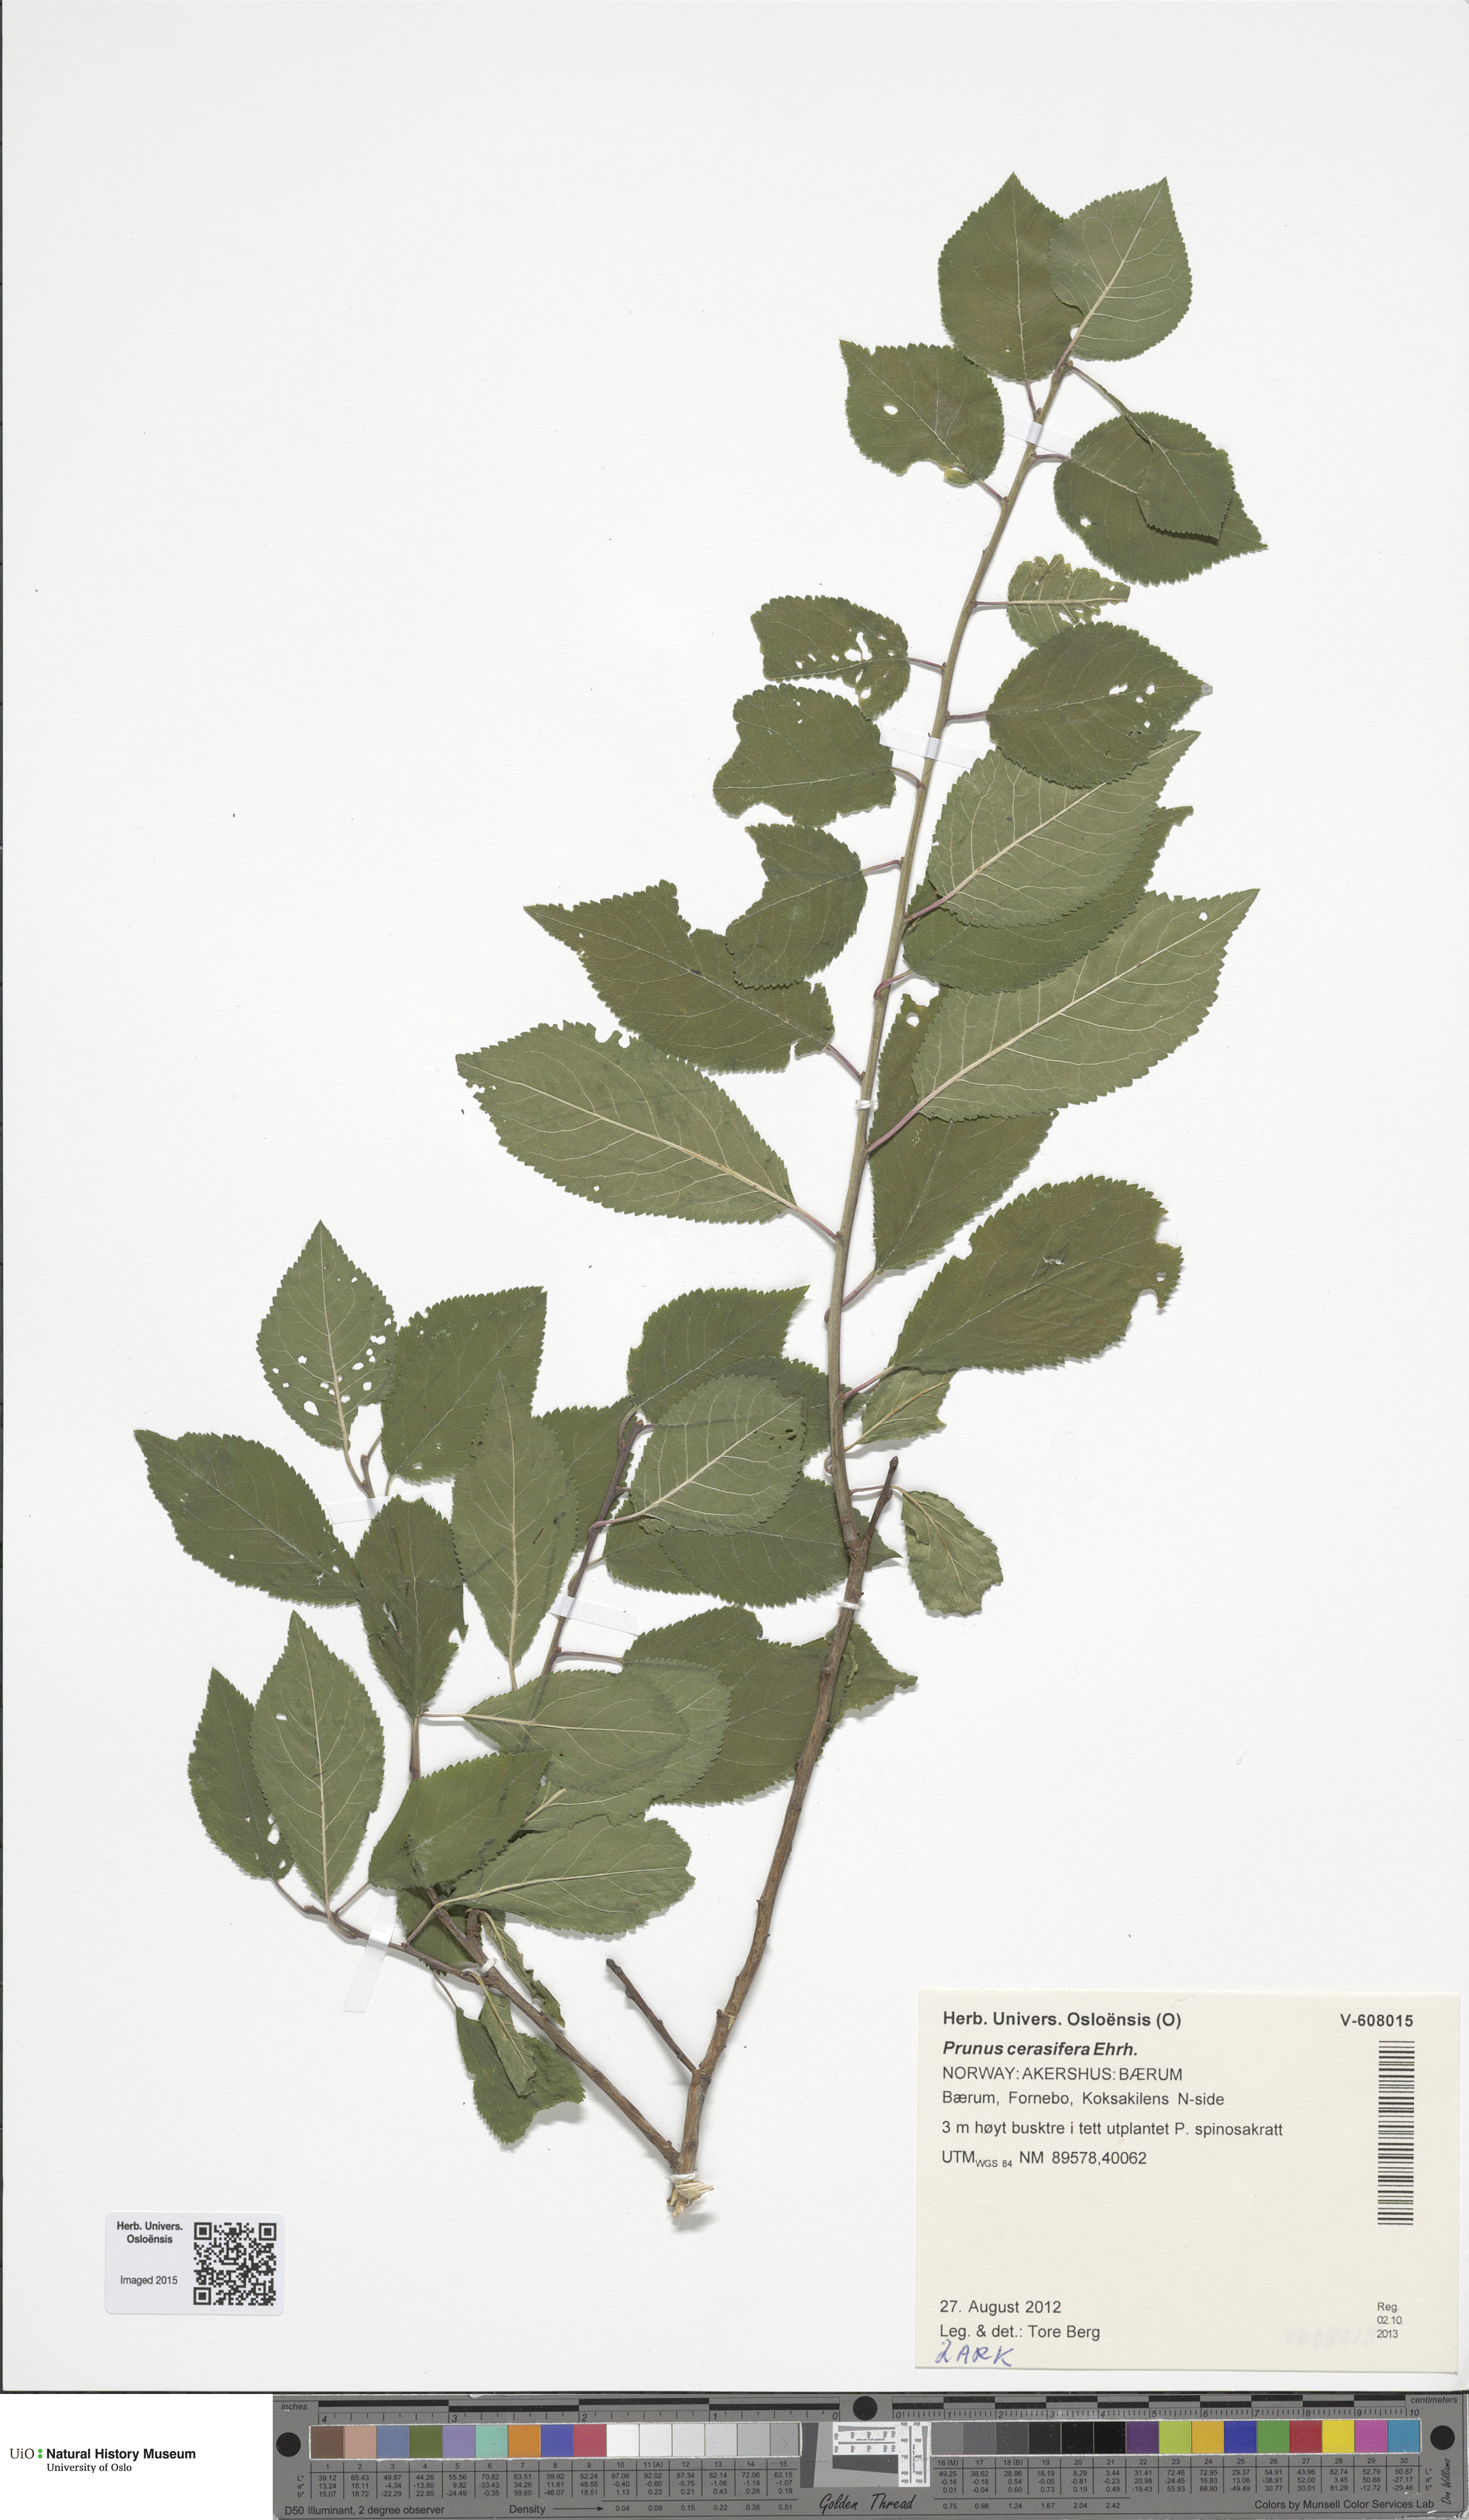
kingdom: Plantae
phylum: Tracheophyta
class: Magnoliopsida
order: Rosales
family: Rosaceae
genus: Prunus
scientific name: Prunus cerasifera
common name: Cherry plum
